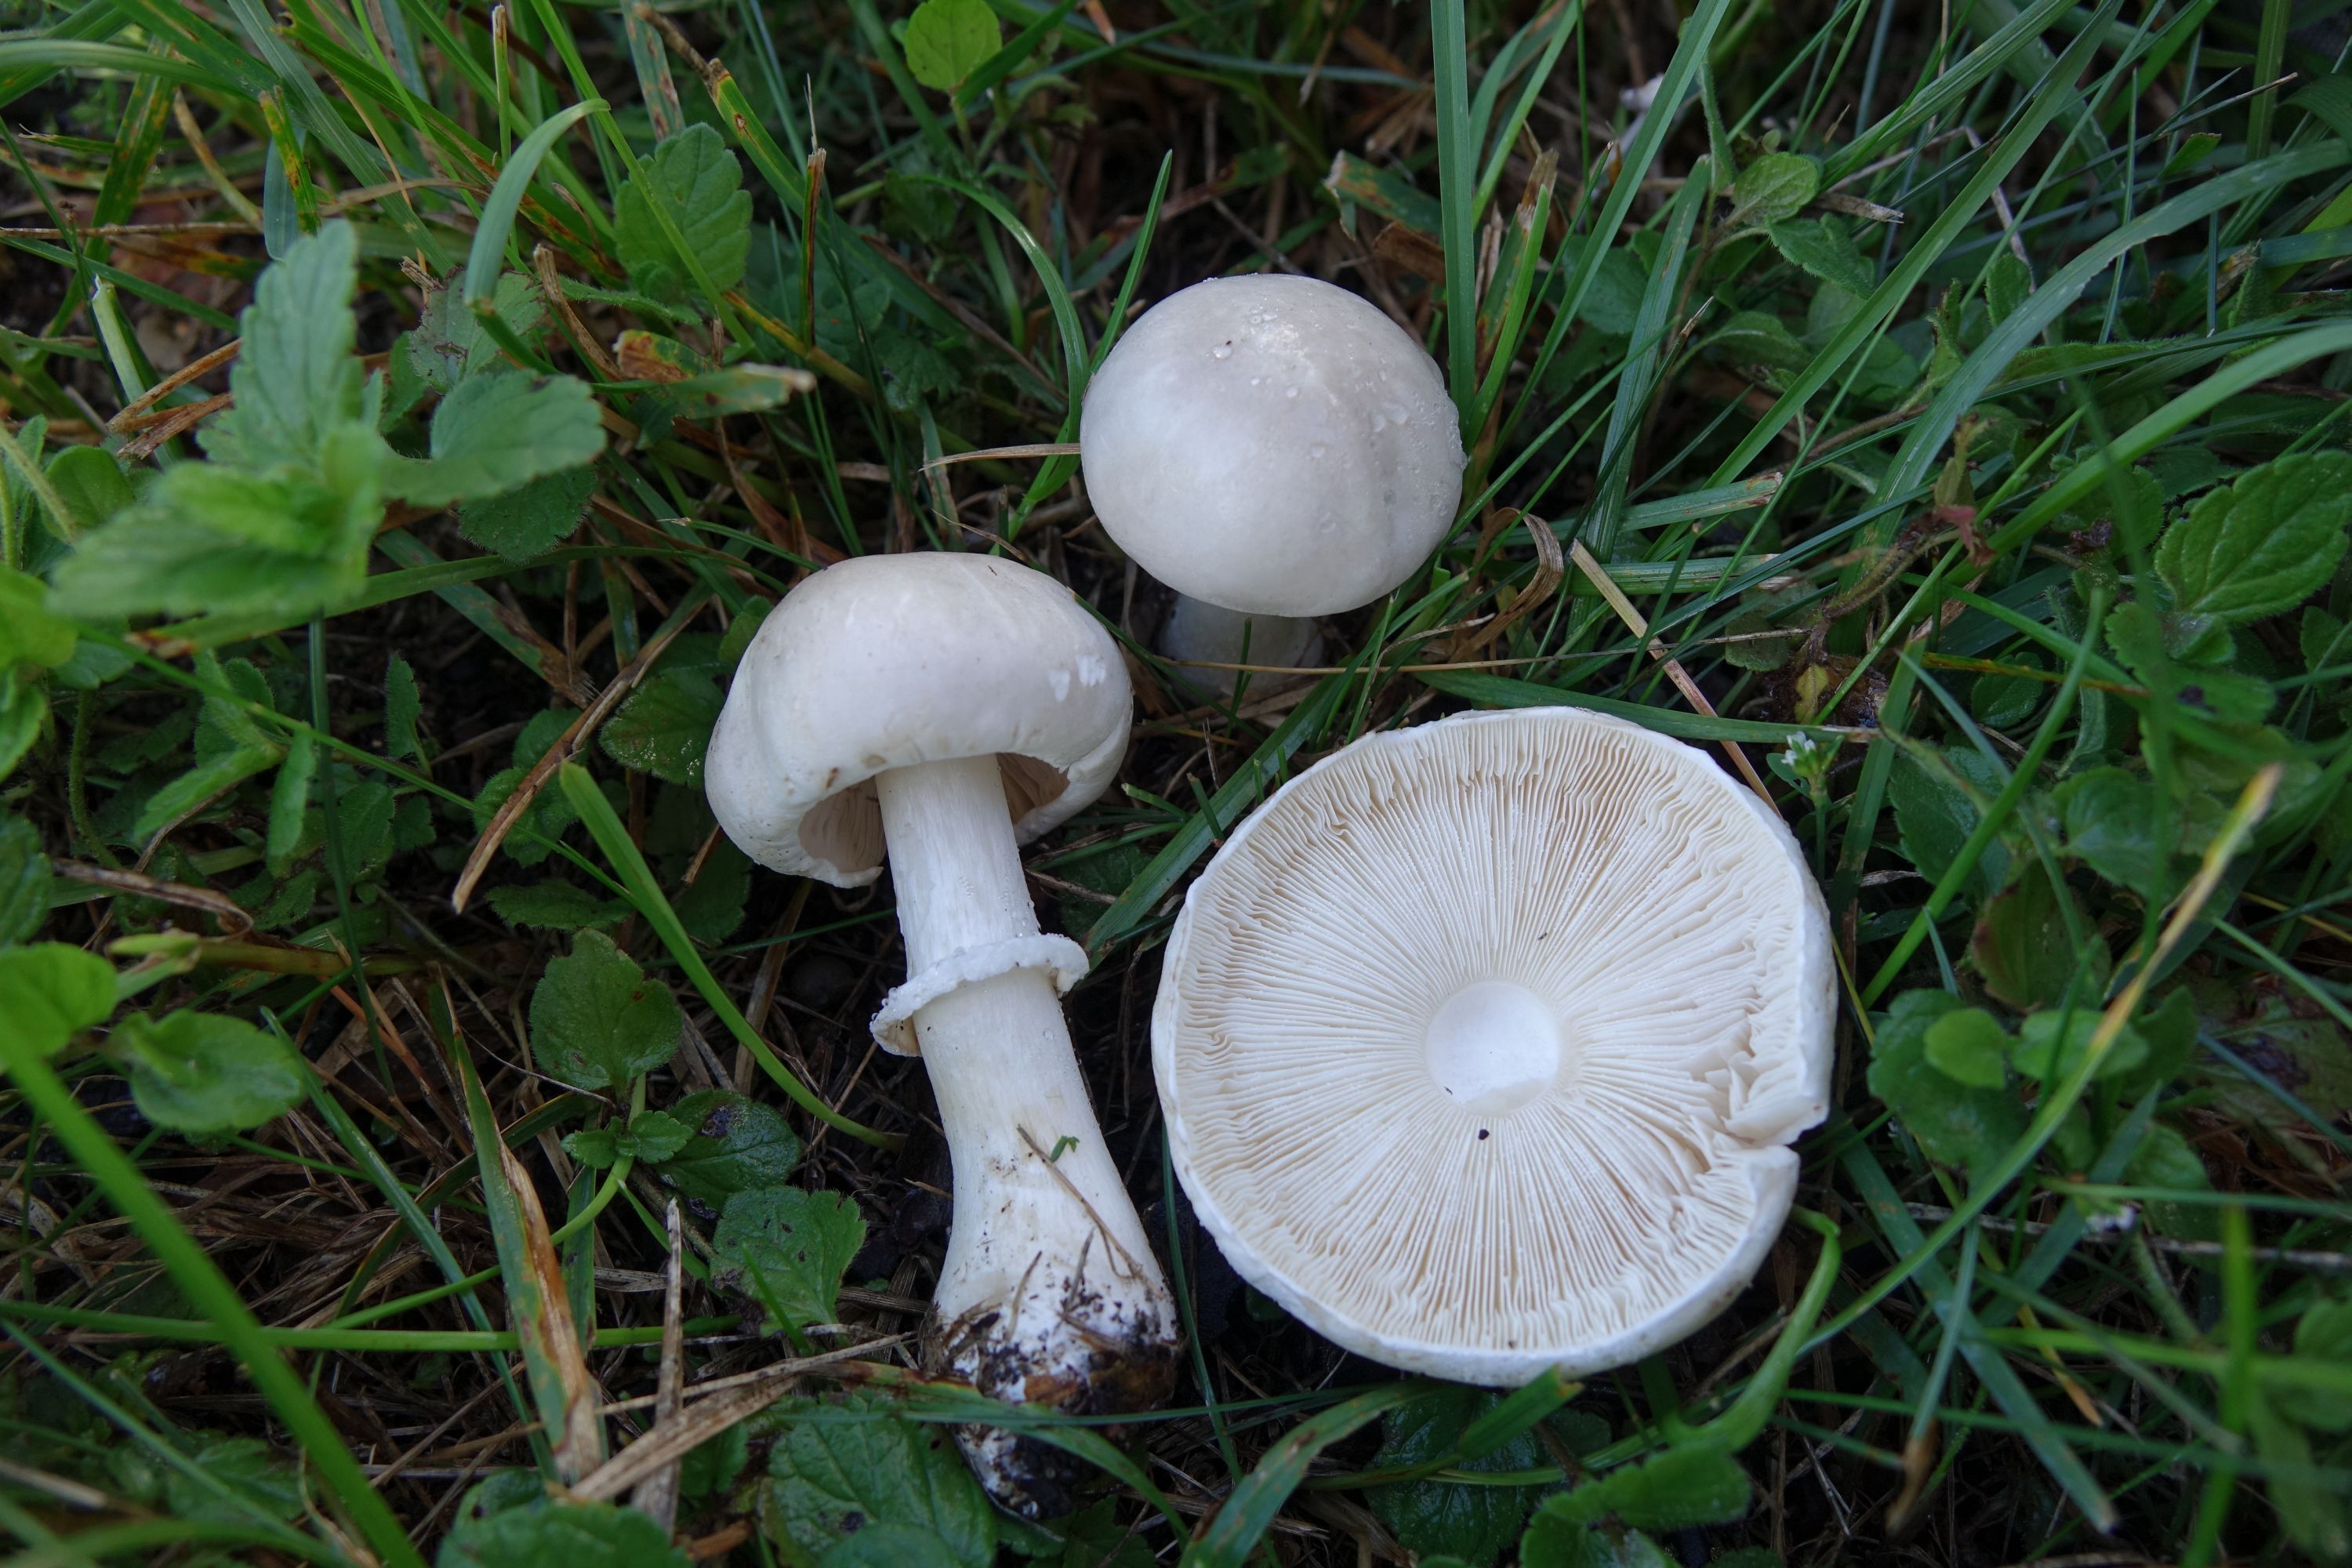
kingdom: Fungi
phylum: Basidiomycota
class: Agaricomycetes
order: Agaricales
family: Agaricaceae
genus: Leucoagaricus
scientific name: Leucoagaricus leucothites
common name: White dapperling
